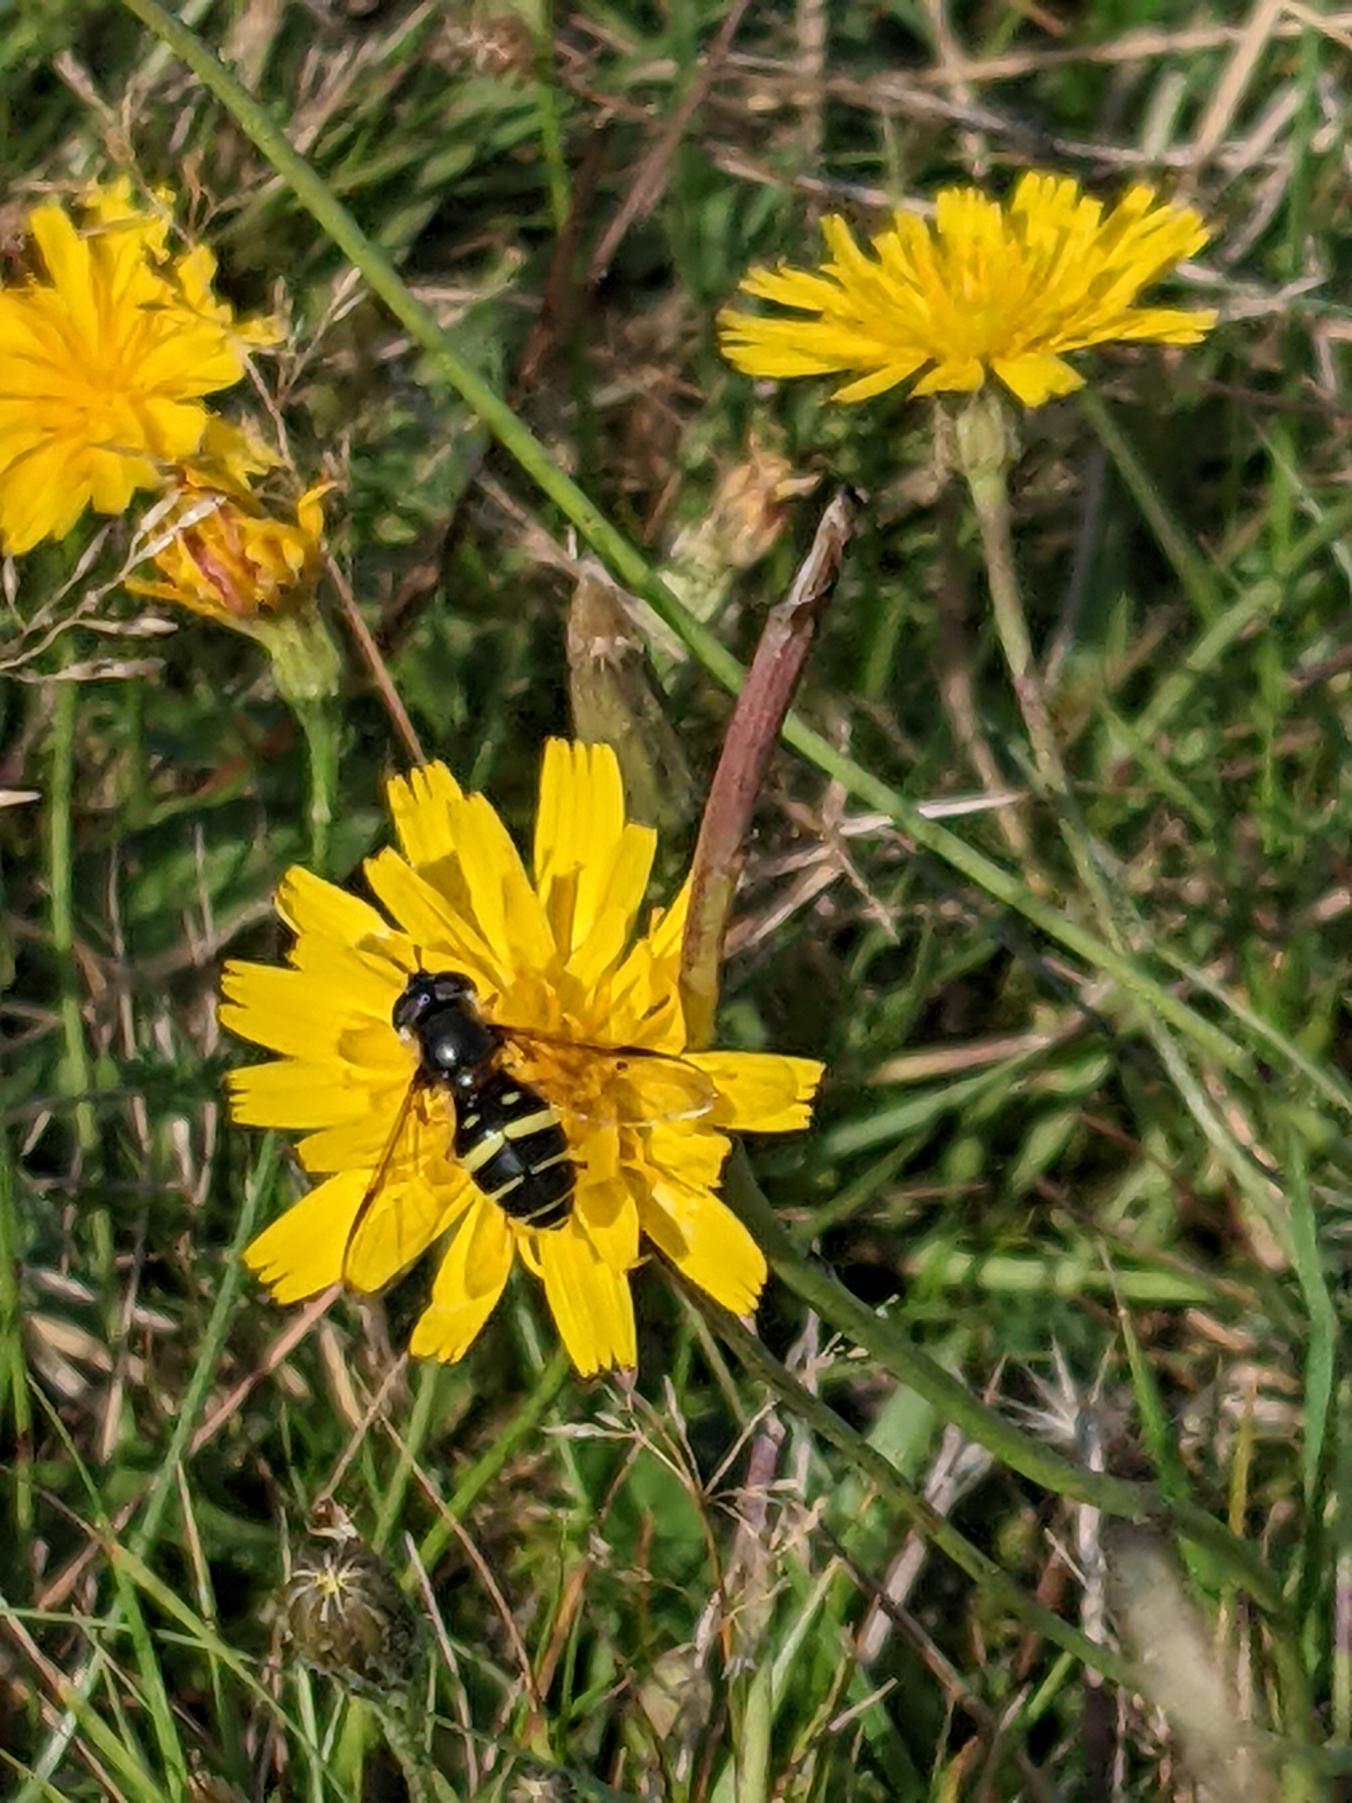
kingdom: Animalia
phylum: Arthropoda
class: Insecta
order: Diptera
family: Syrphidae
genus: Dasysyrphus
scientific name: Dasysyrphus tricinctus
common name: Bredbåndet skovsvirreflue
